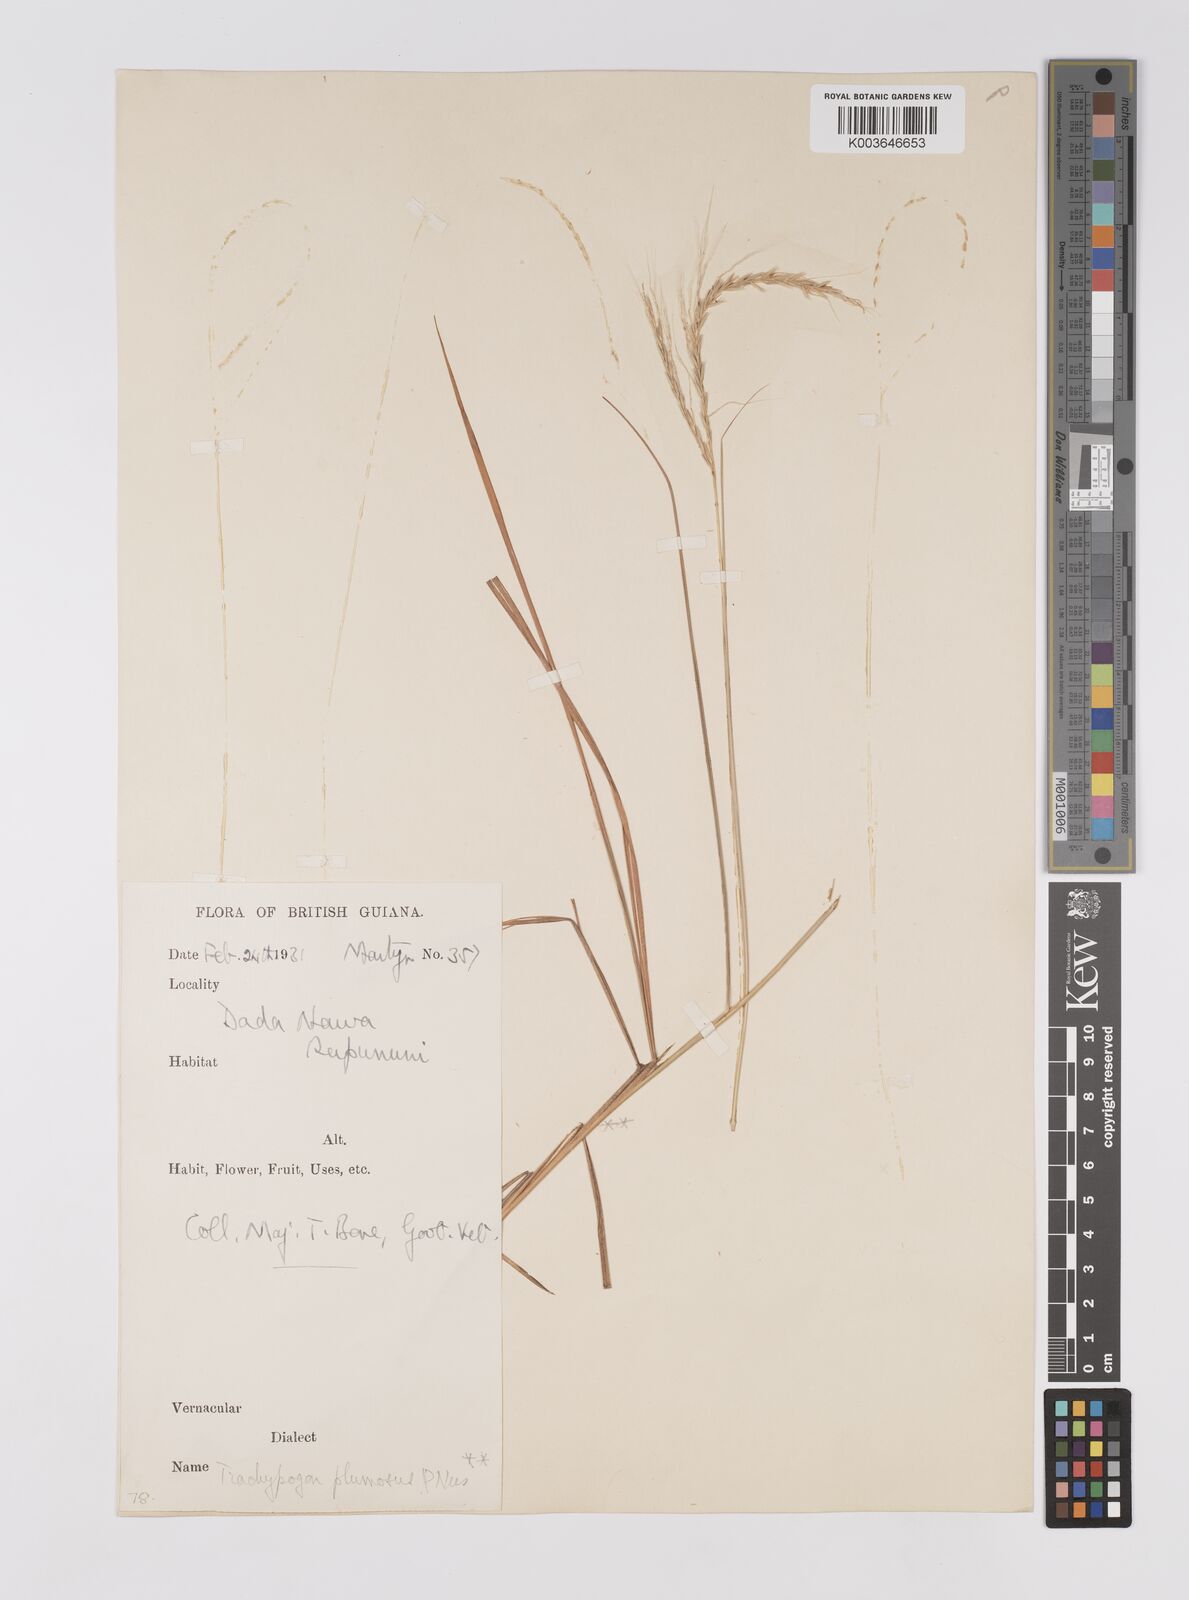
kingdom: Plantae
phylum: Tracheophyta
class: Liliopsida
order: Poales
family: Poaceae
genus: Trachypogon
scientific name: Trachypogon spicatus
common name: Crinkle-awn
